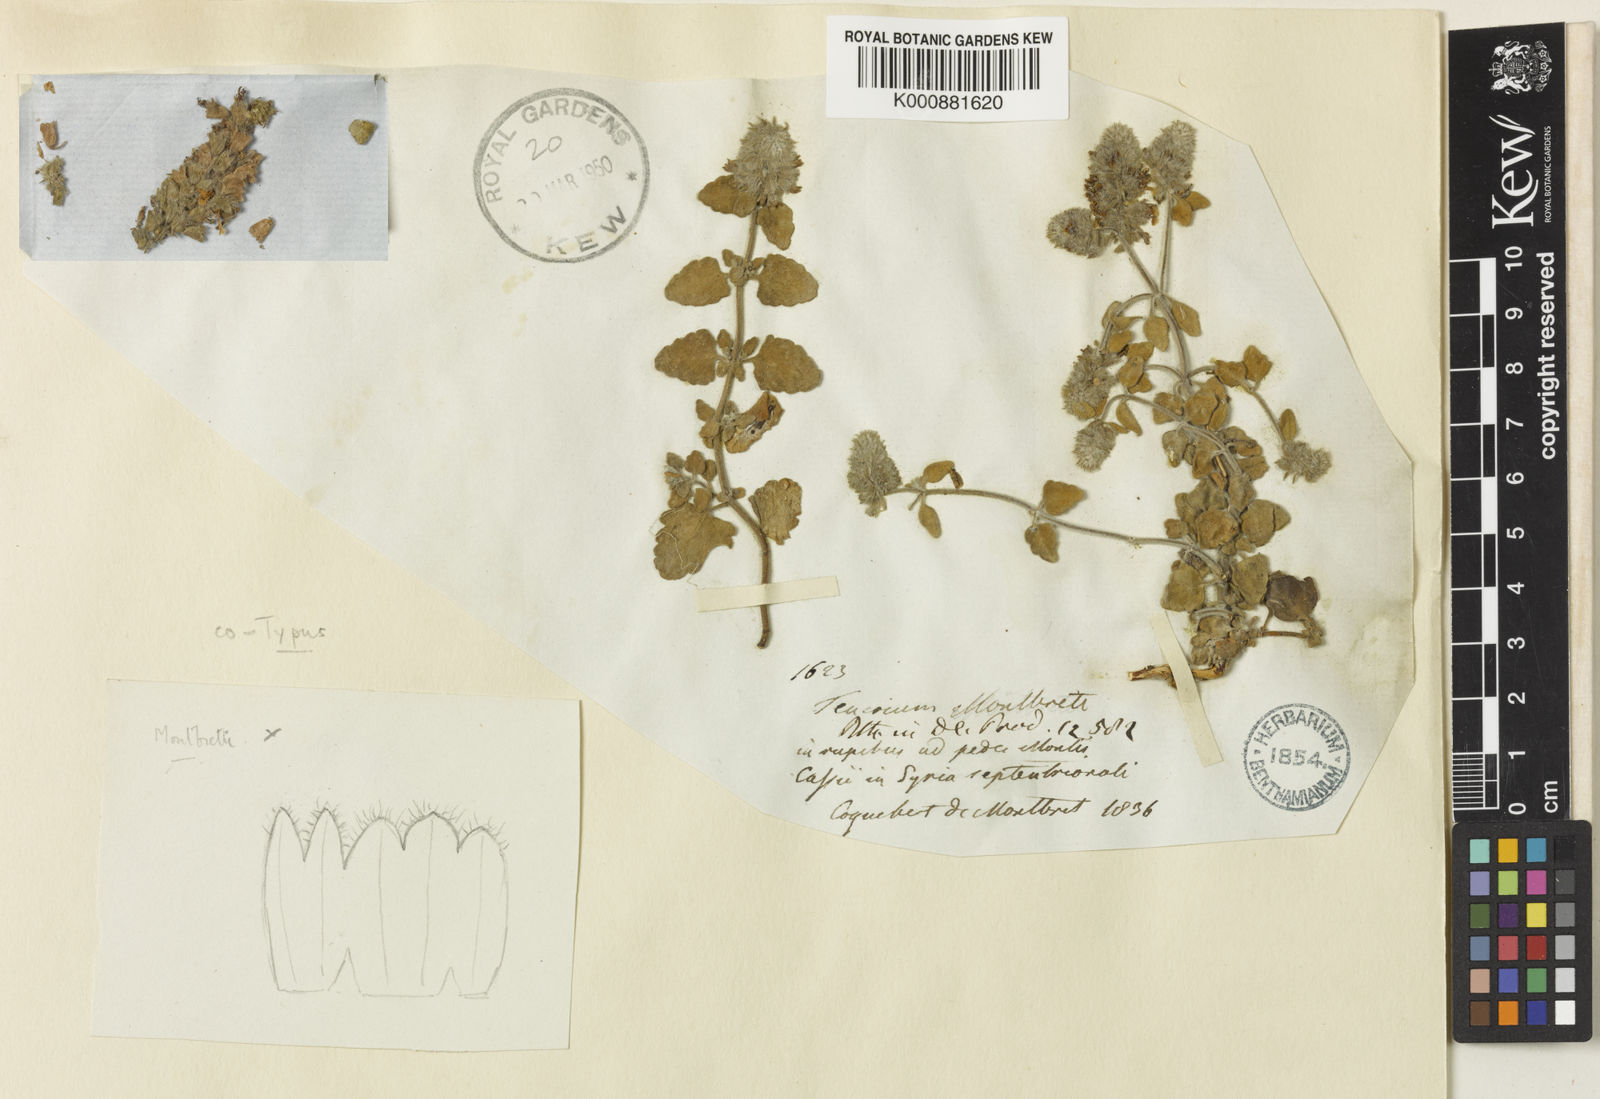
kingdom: Plantae
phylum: Tracheophyta
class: Magnoliopsida
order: Lamiales
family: Lamiaceae
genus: Teucrium
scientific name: Teucrium montbretii
